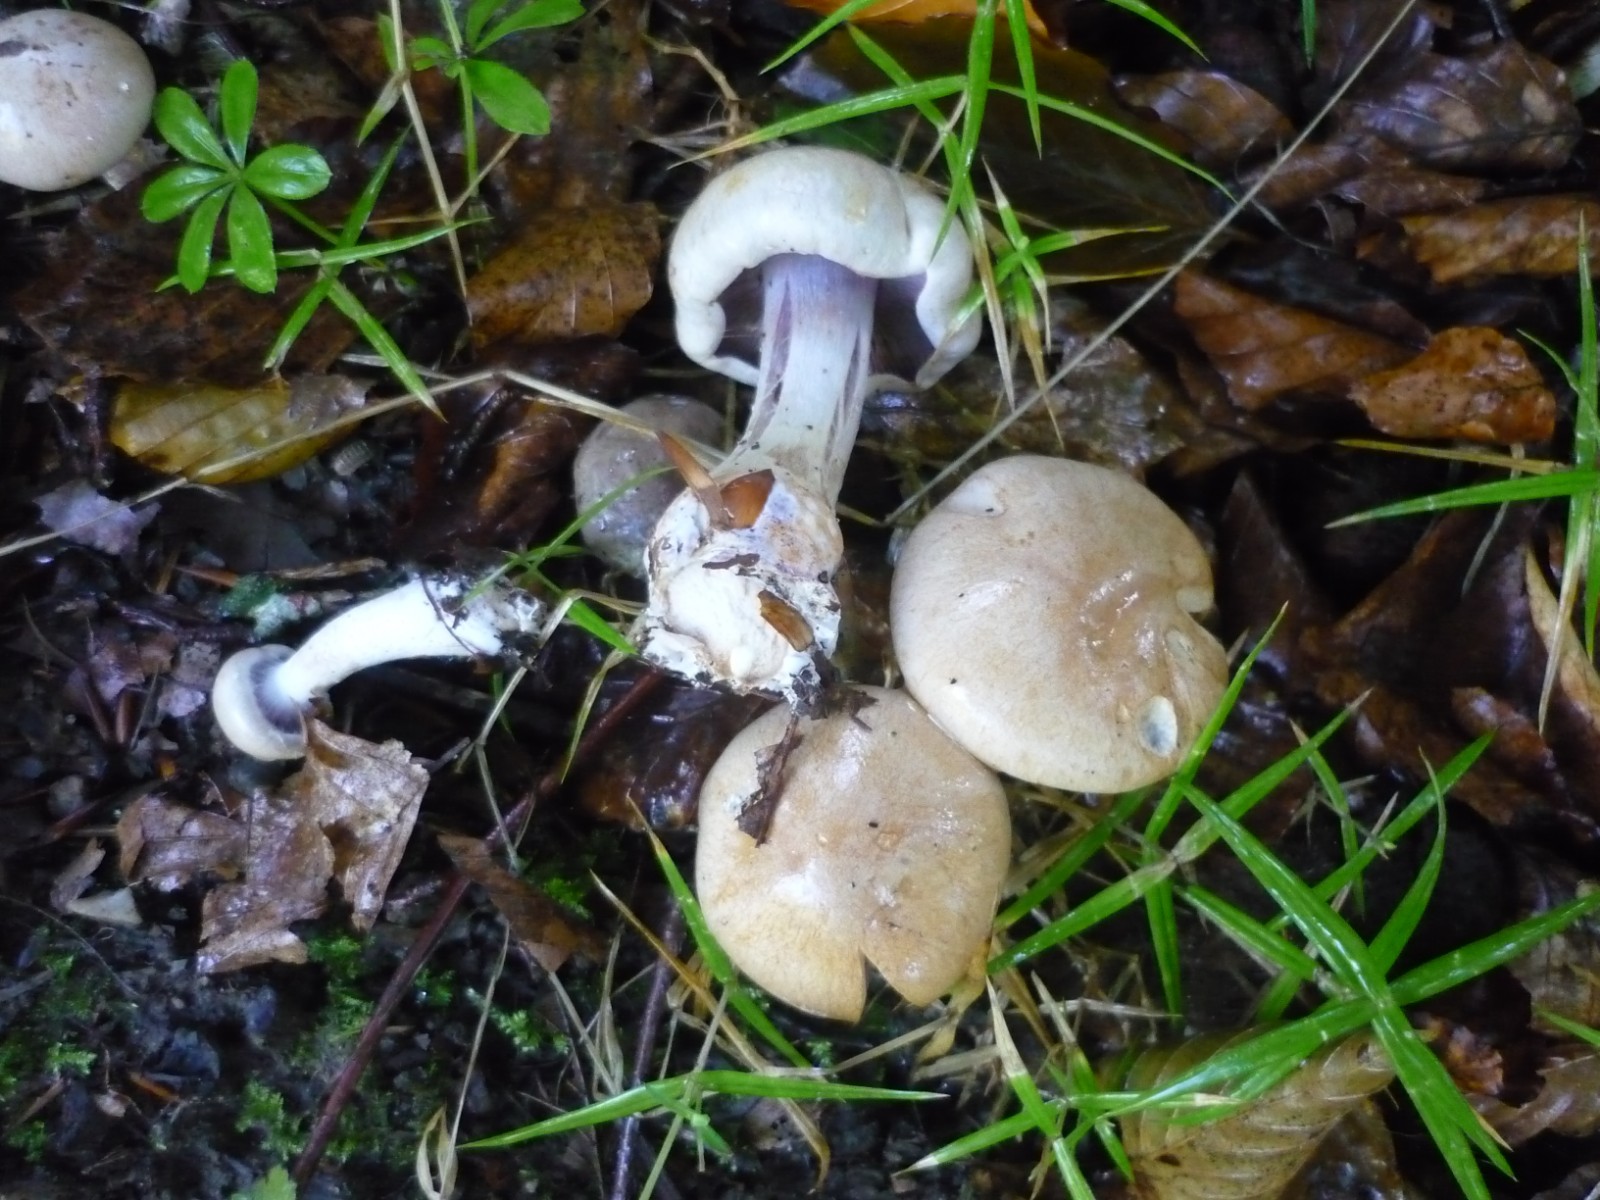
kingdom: Fungi
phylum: Basidiomycota
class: Agaricomycetes
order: Agaricales
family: Cortinariaceae
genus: Cortinarius
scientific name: Cortinarius
